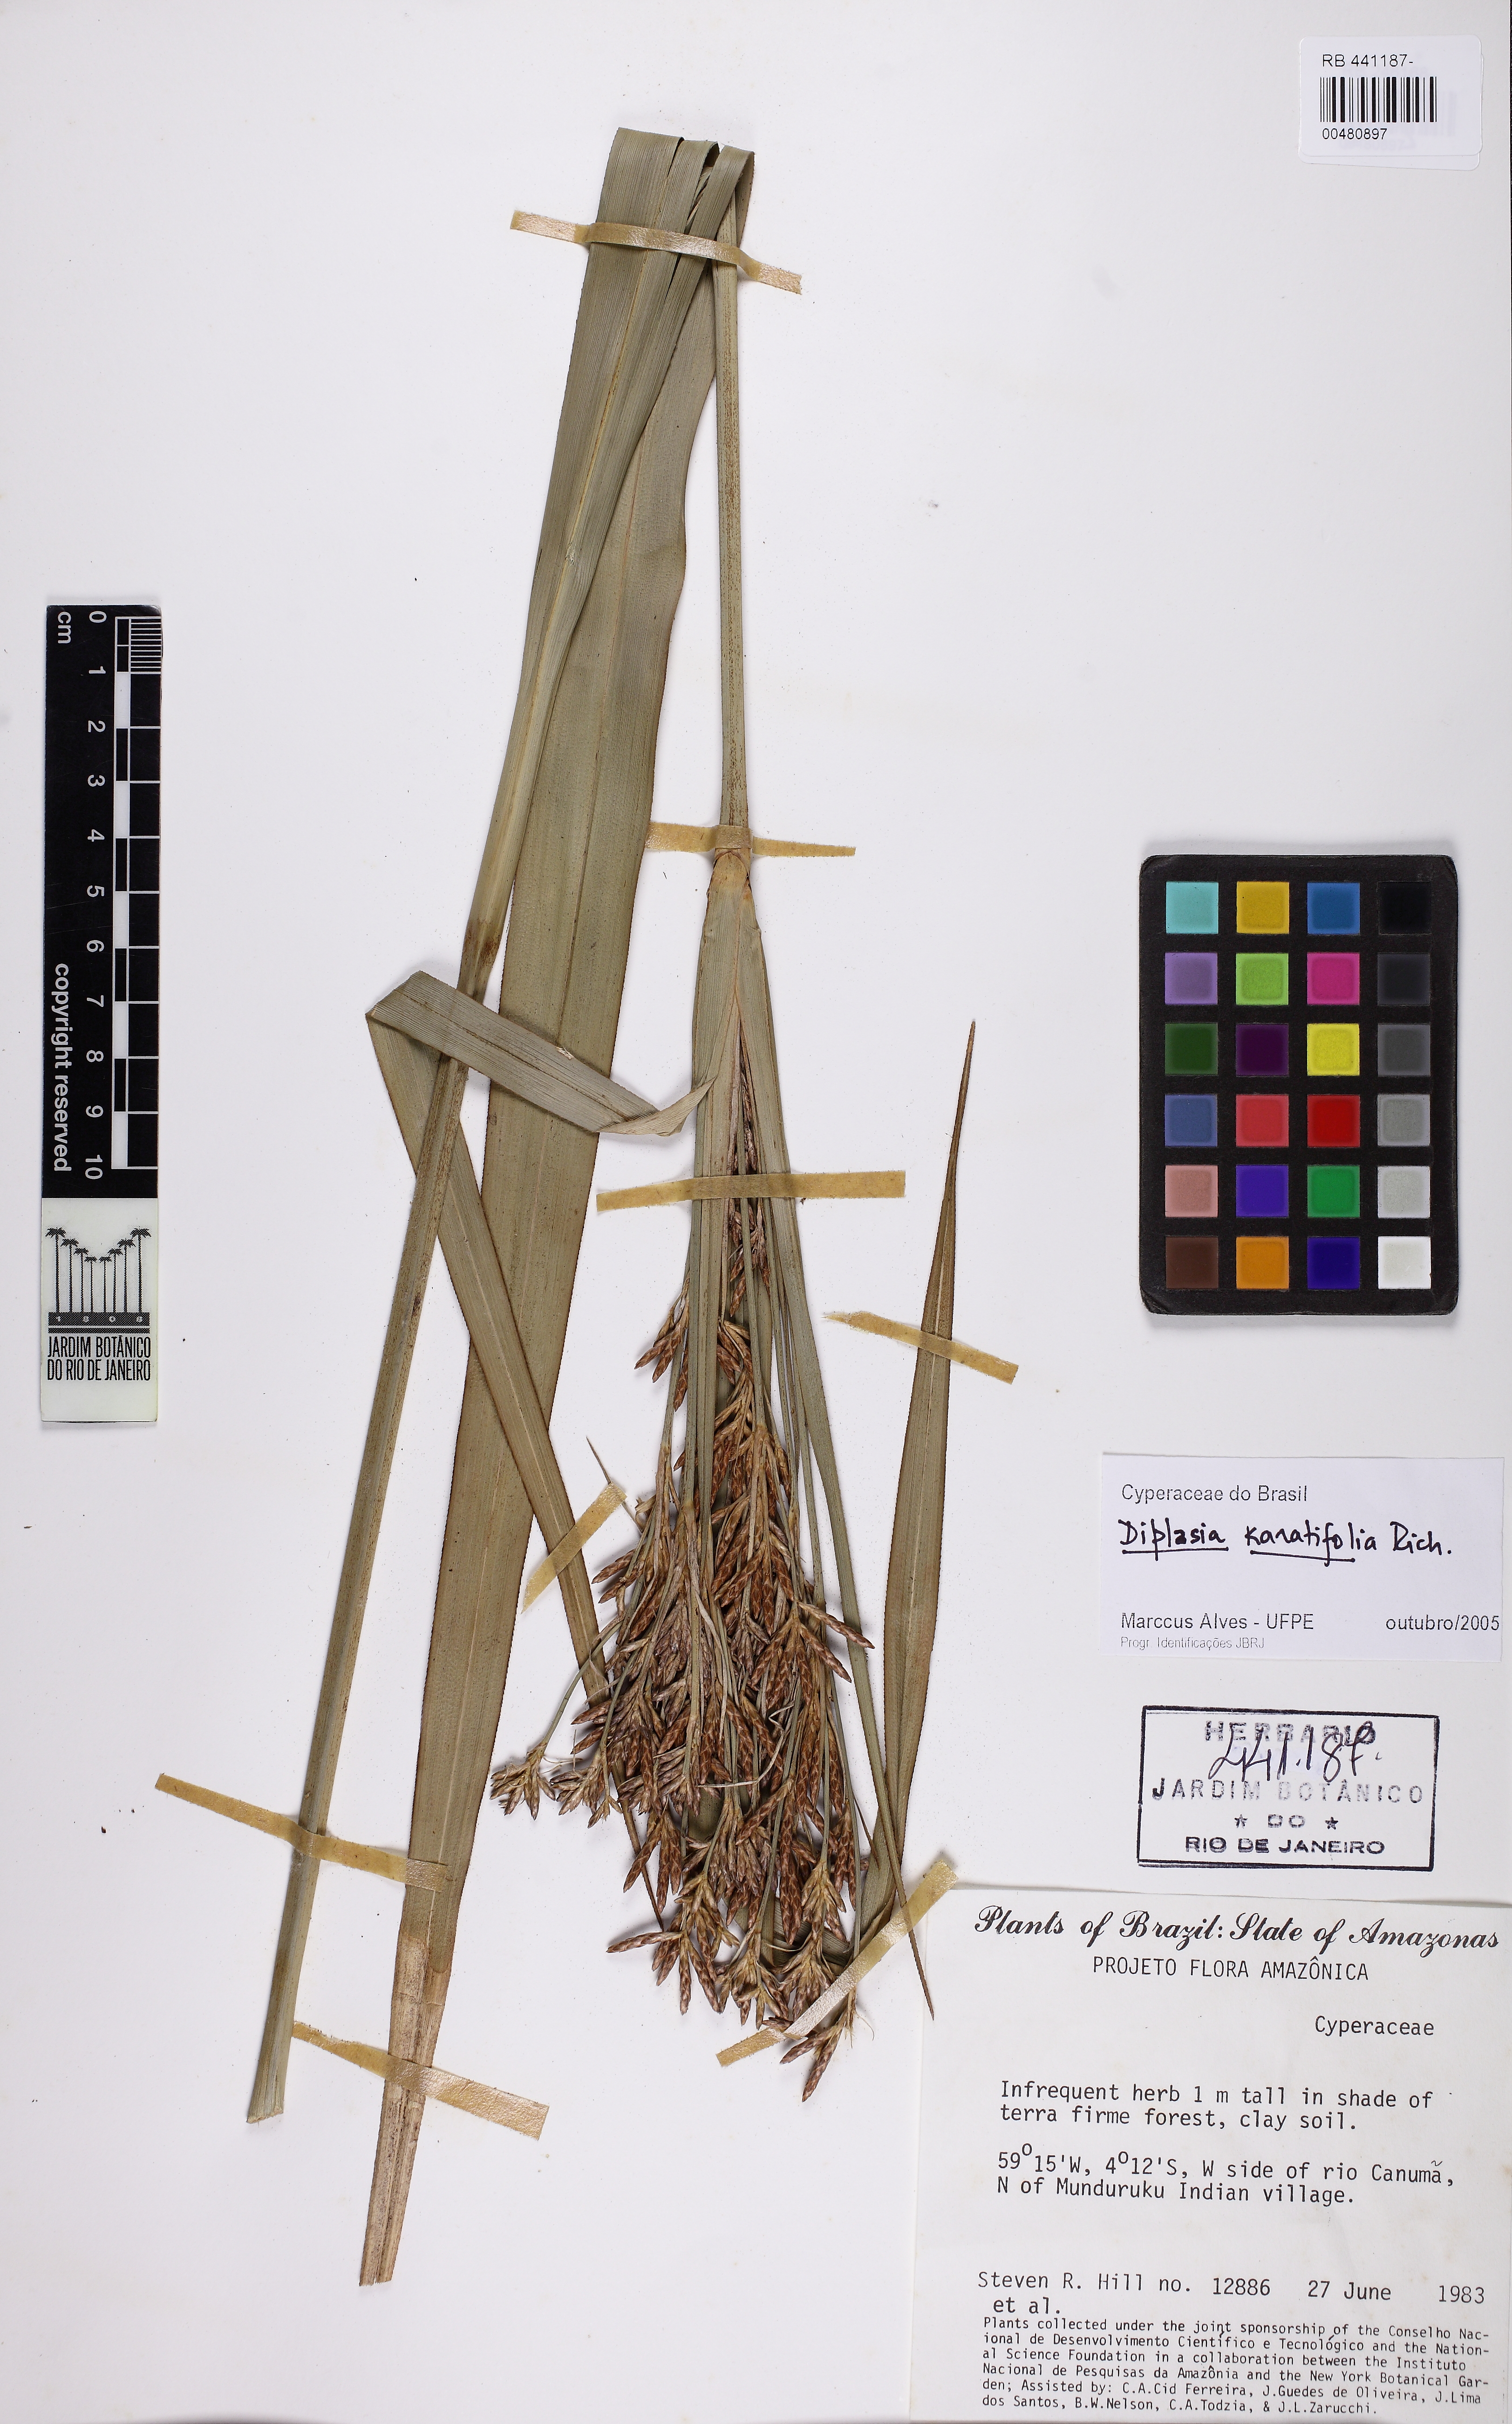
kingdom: Plantae
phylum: Tracheophyta
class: Liliopsida
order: Poales
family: Cyperaceae
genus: Diplasia
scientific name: Diplasia karatifolia
